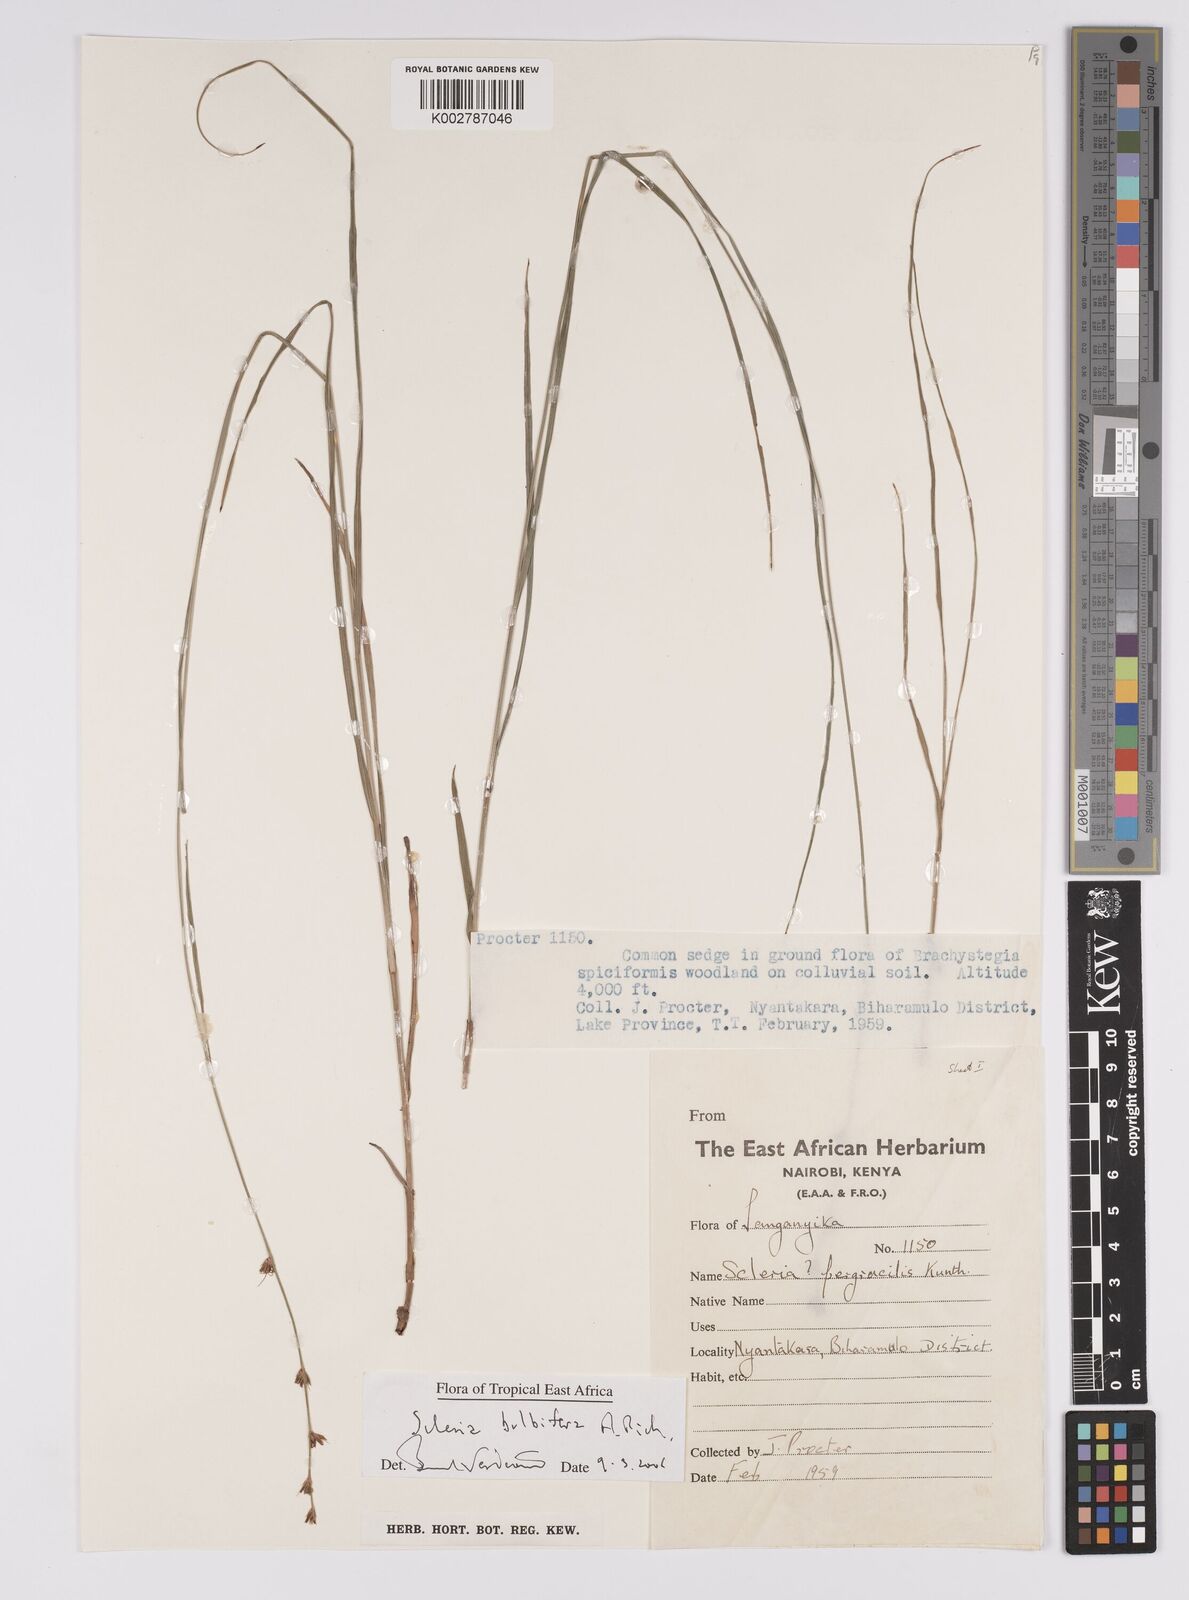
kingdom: Plantae
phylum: Tracheophyta
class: Liliopsida
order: Poales
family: Cyperaceae
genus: Scleria
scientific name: Scleria bulbifera
